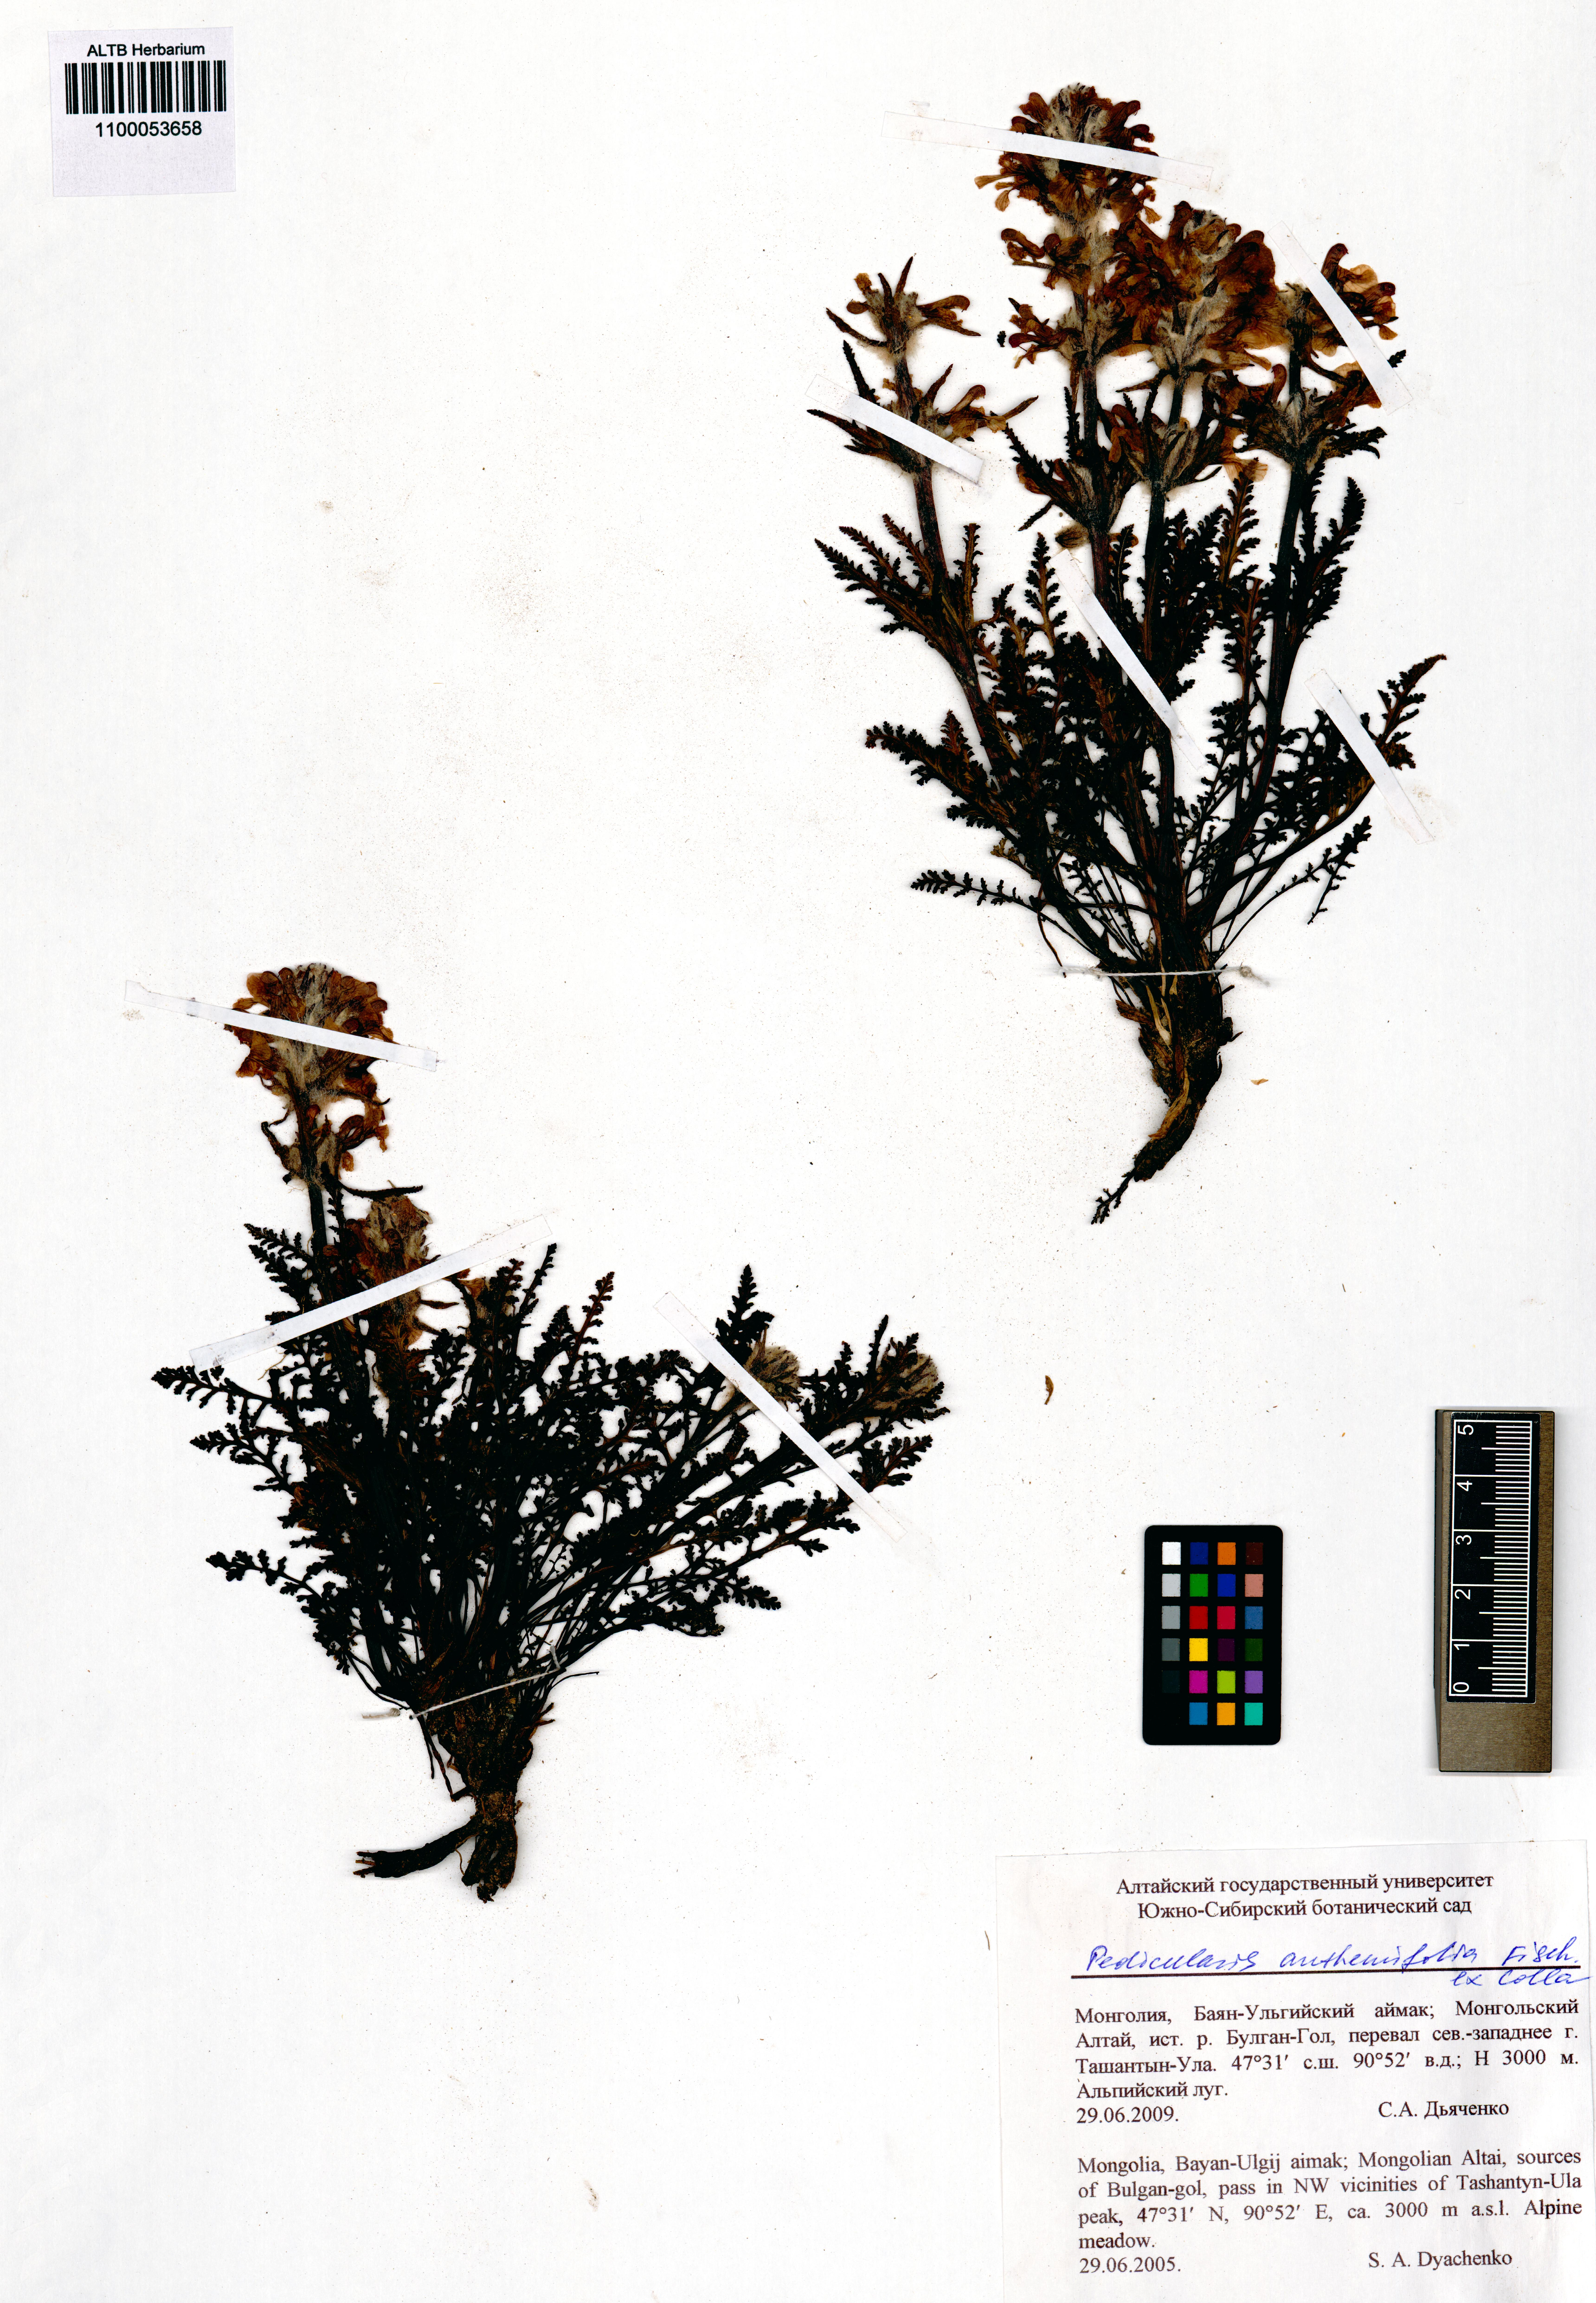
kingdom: Plantae
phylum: Tracheophyta
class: Magnoliopsida
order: Lamiales
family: Orobanchaceae
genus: Pedicularis
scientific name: Pedicularis anthemifolia
